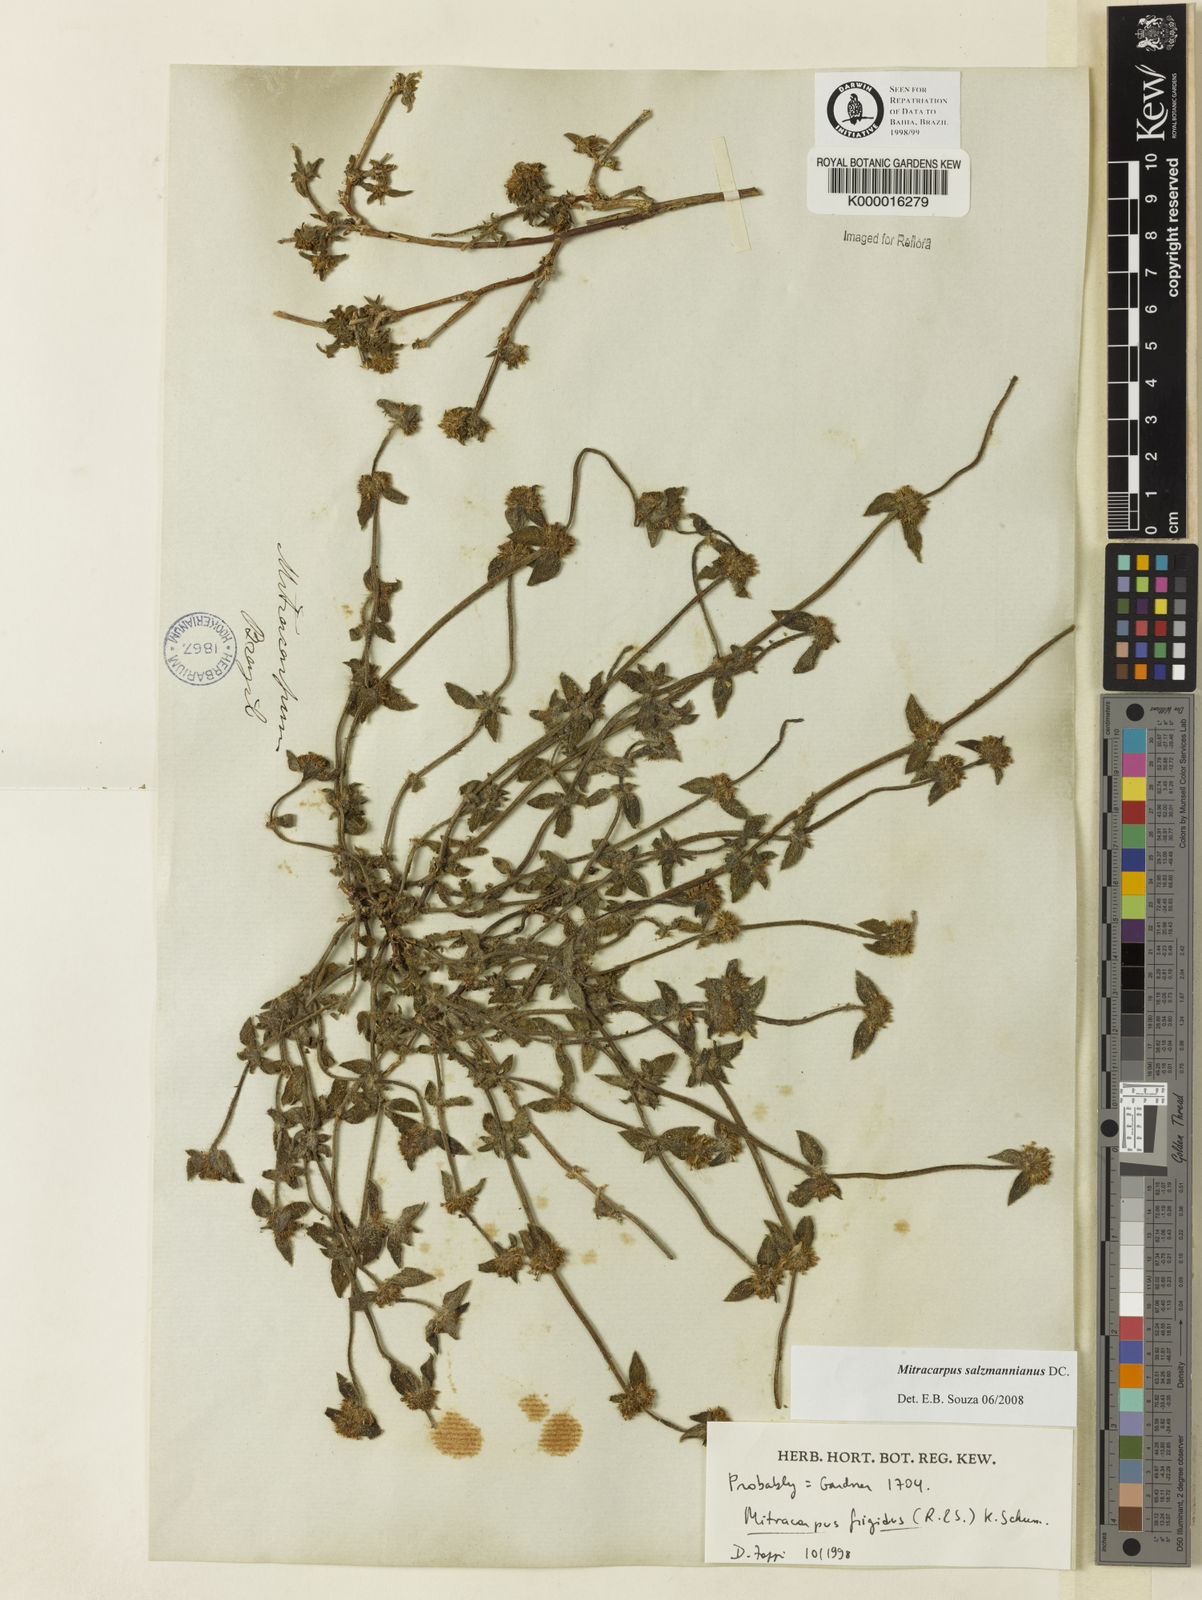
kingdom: Plantae
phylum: Tracheophyta
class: Magnoliopsida
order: Gentianales
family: Rubiaceae
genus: Mitracarpus
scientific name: Mitracarpus salzmannianus
